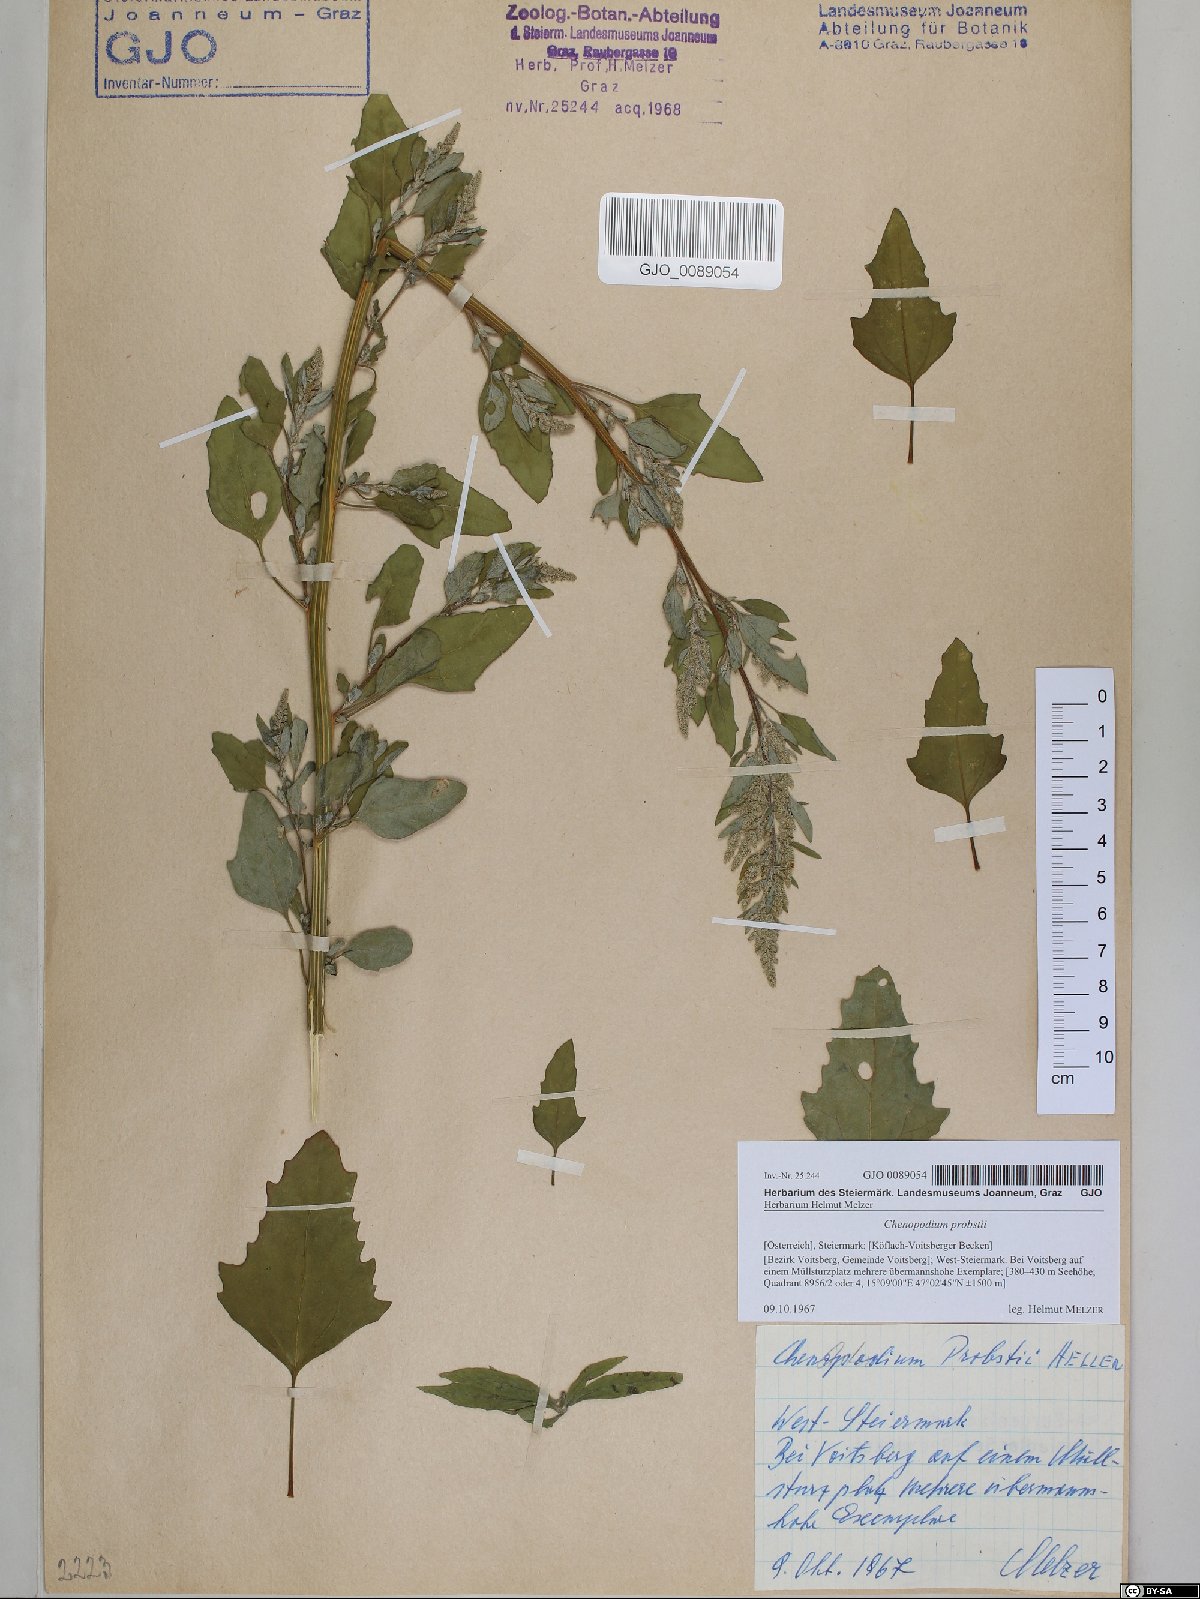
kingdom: Plantae
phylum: Tracheophyta
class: Magnoliopsida
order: Caryophyllales
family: Amaranthaceae
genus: Chenopodium
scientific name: Chenopodium probstii
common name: Probst's goosefoot
